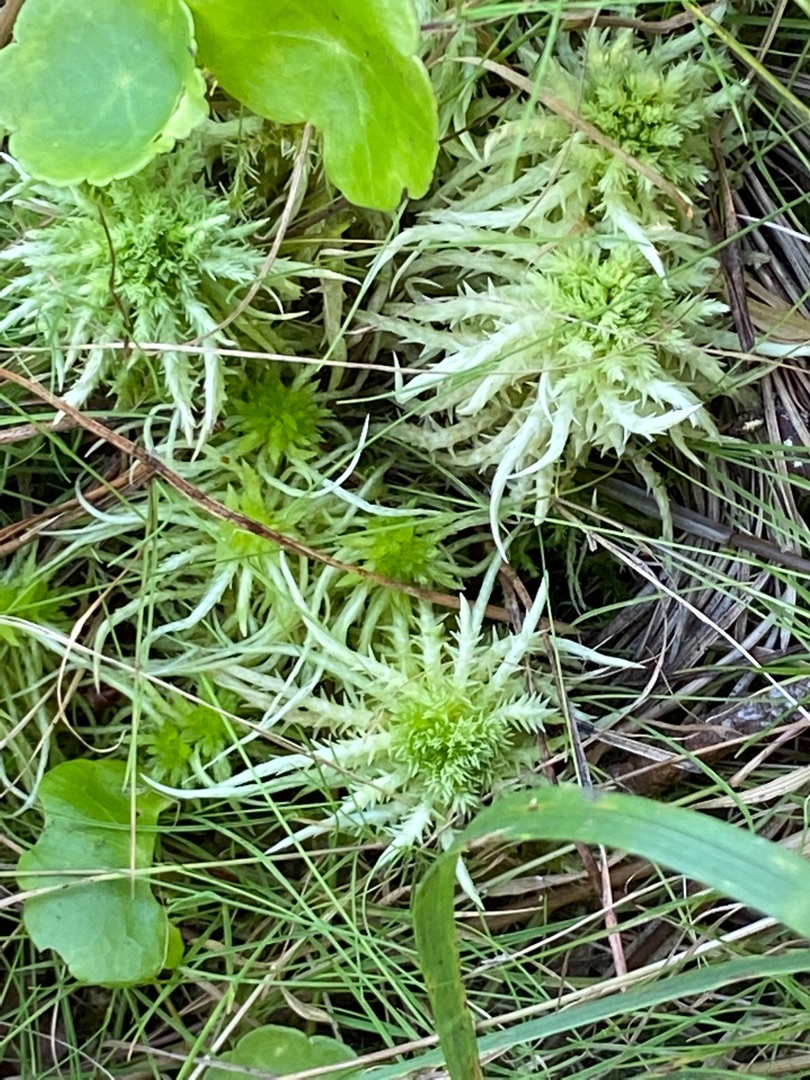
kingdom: Plantae
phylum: Bryophyta
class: Sphagnopsida
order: Sphagnales
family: Sphagnaceae
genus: Sphagnum
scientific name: Sphagnum squarrosum
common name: Udspærret tørvemos
